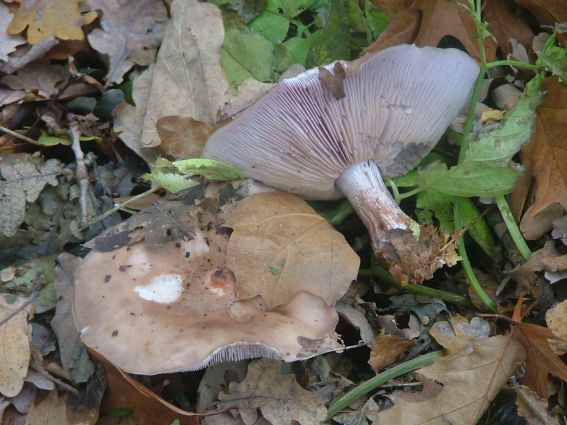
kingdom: Fungi
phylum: Basidiomycota
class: Agaricomycetes
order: Agaricales
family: Tricholomataceae
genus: Lepista
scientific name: Lepista nuda
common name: violet hekseringshat
